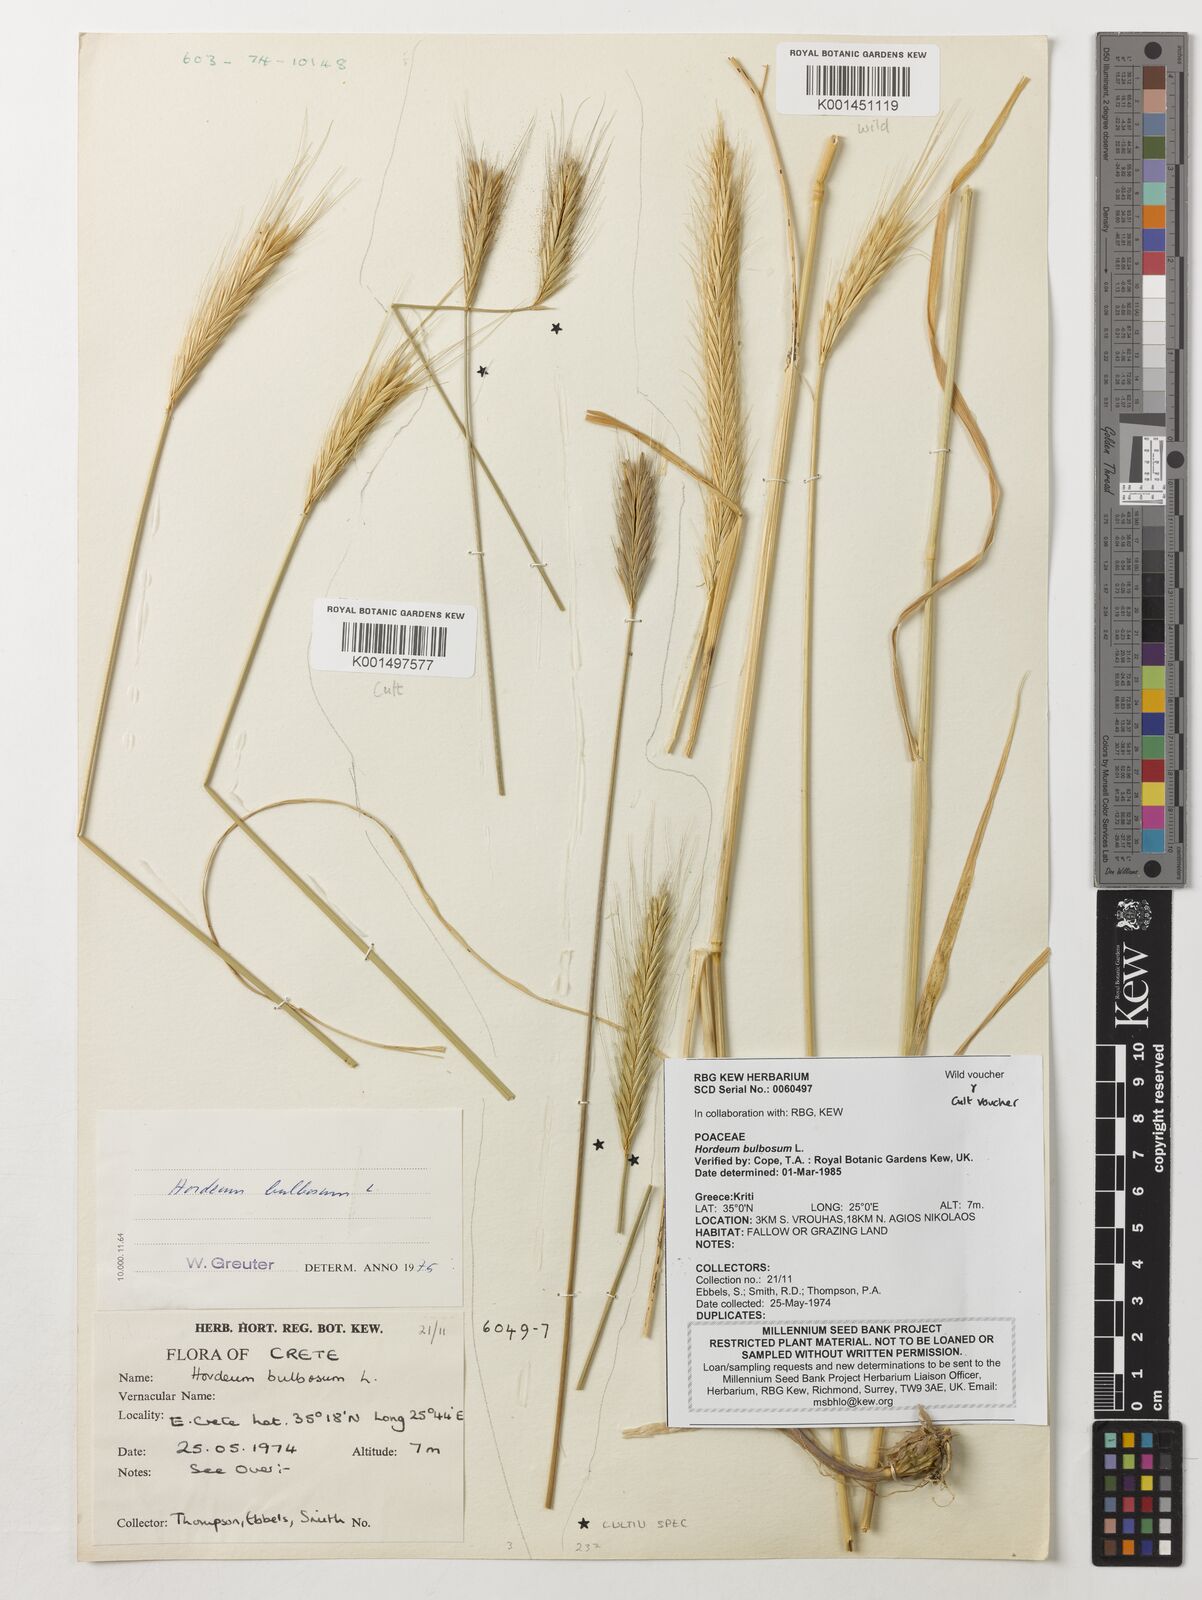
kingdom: Plantae
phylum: Tracheophyta
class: Liliopsida
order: Poales
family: Poaceae
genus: Hordeum
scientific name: Hordeum bulbosum
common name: Bulbous barley
